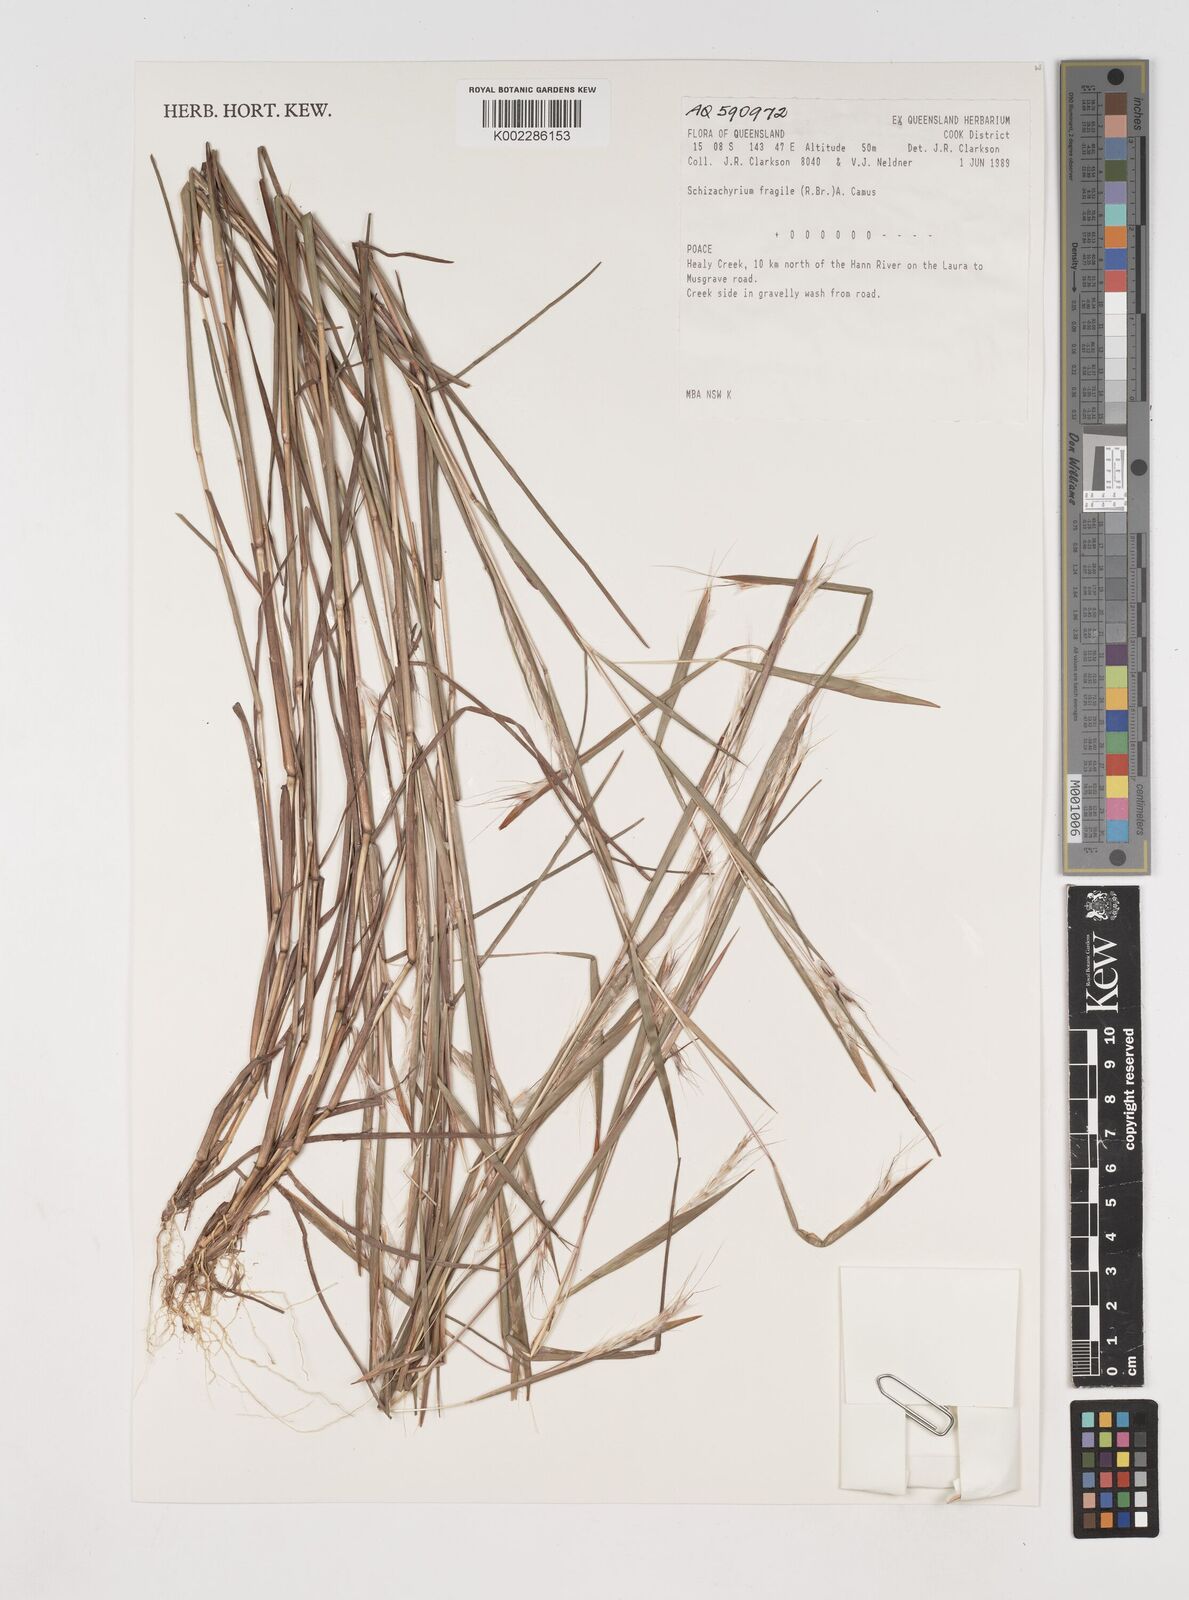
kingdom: Plantae
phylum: Tracheophyta
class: Liliopsida
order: Poales
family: Poaceae
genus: Schizachyrium
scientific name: Schizachyrium fragile
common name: Red spathe grass
